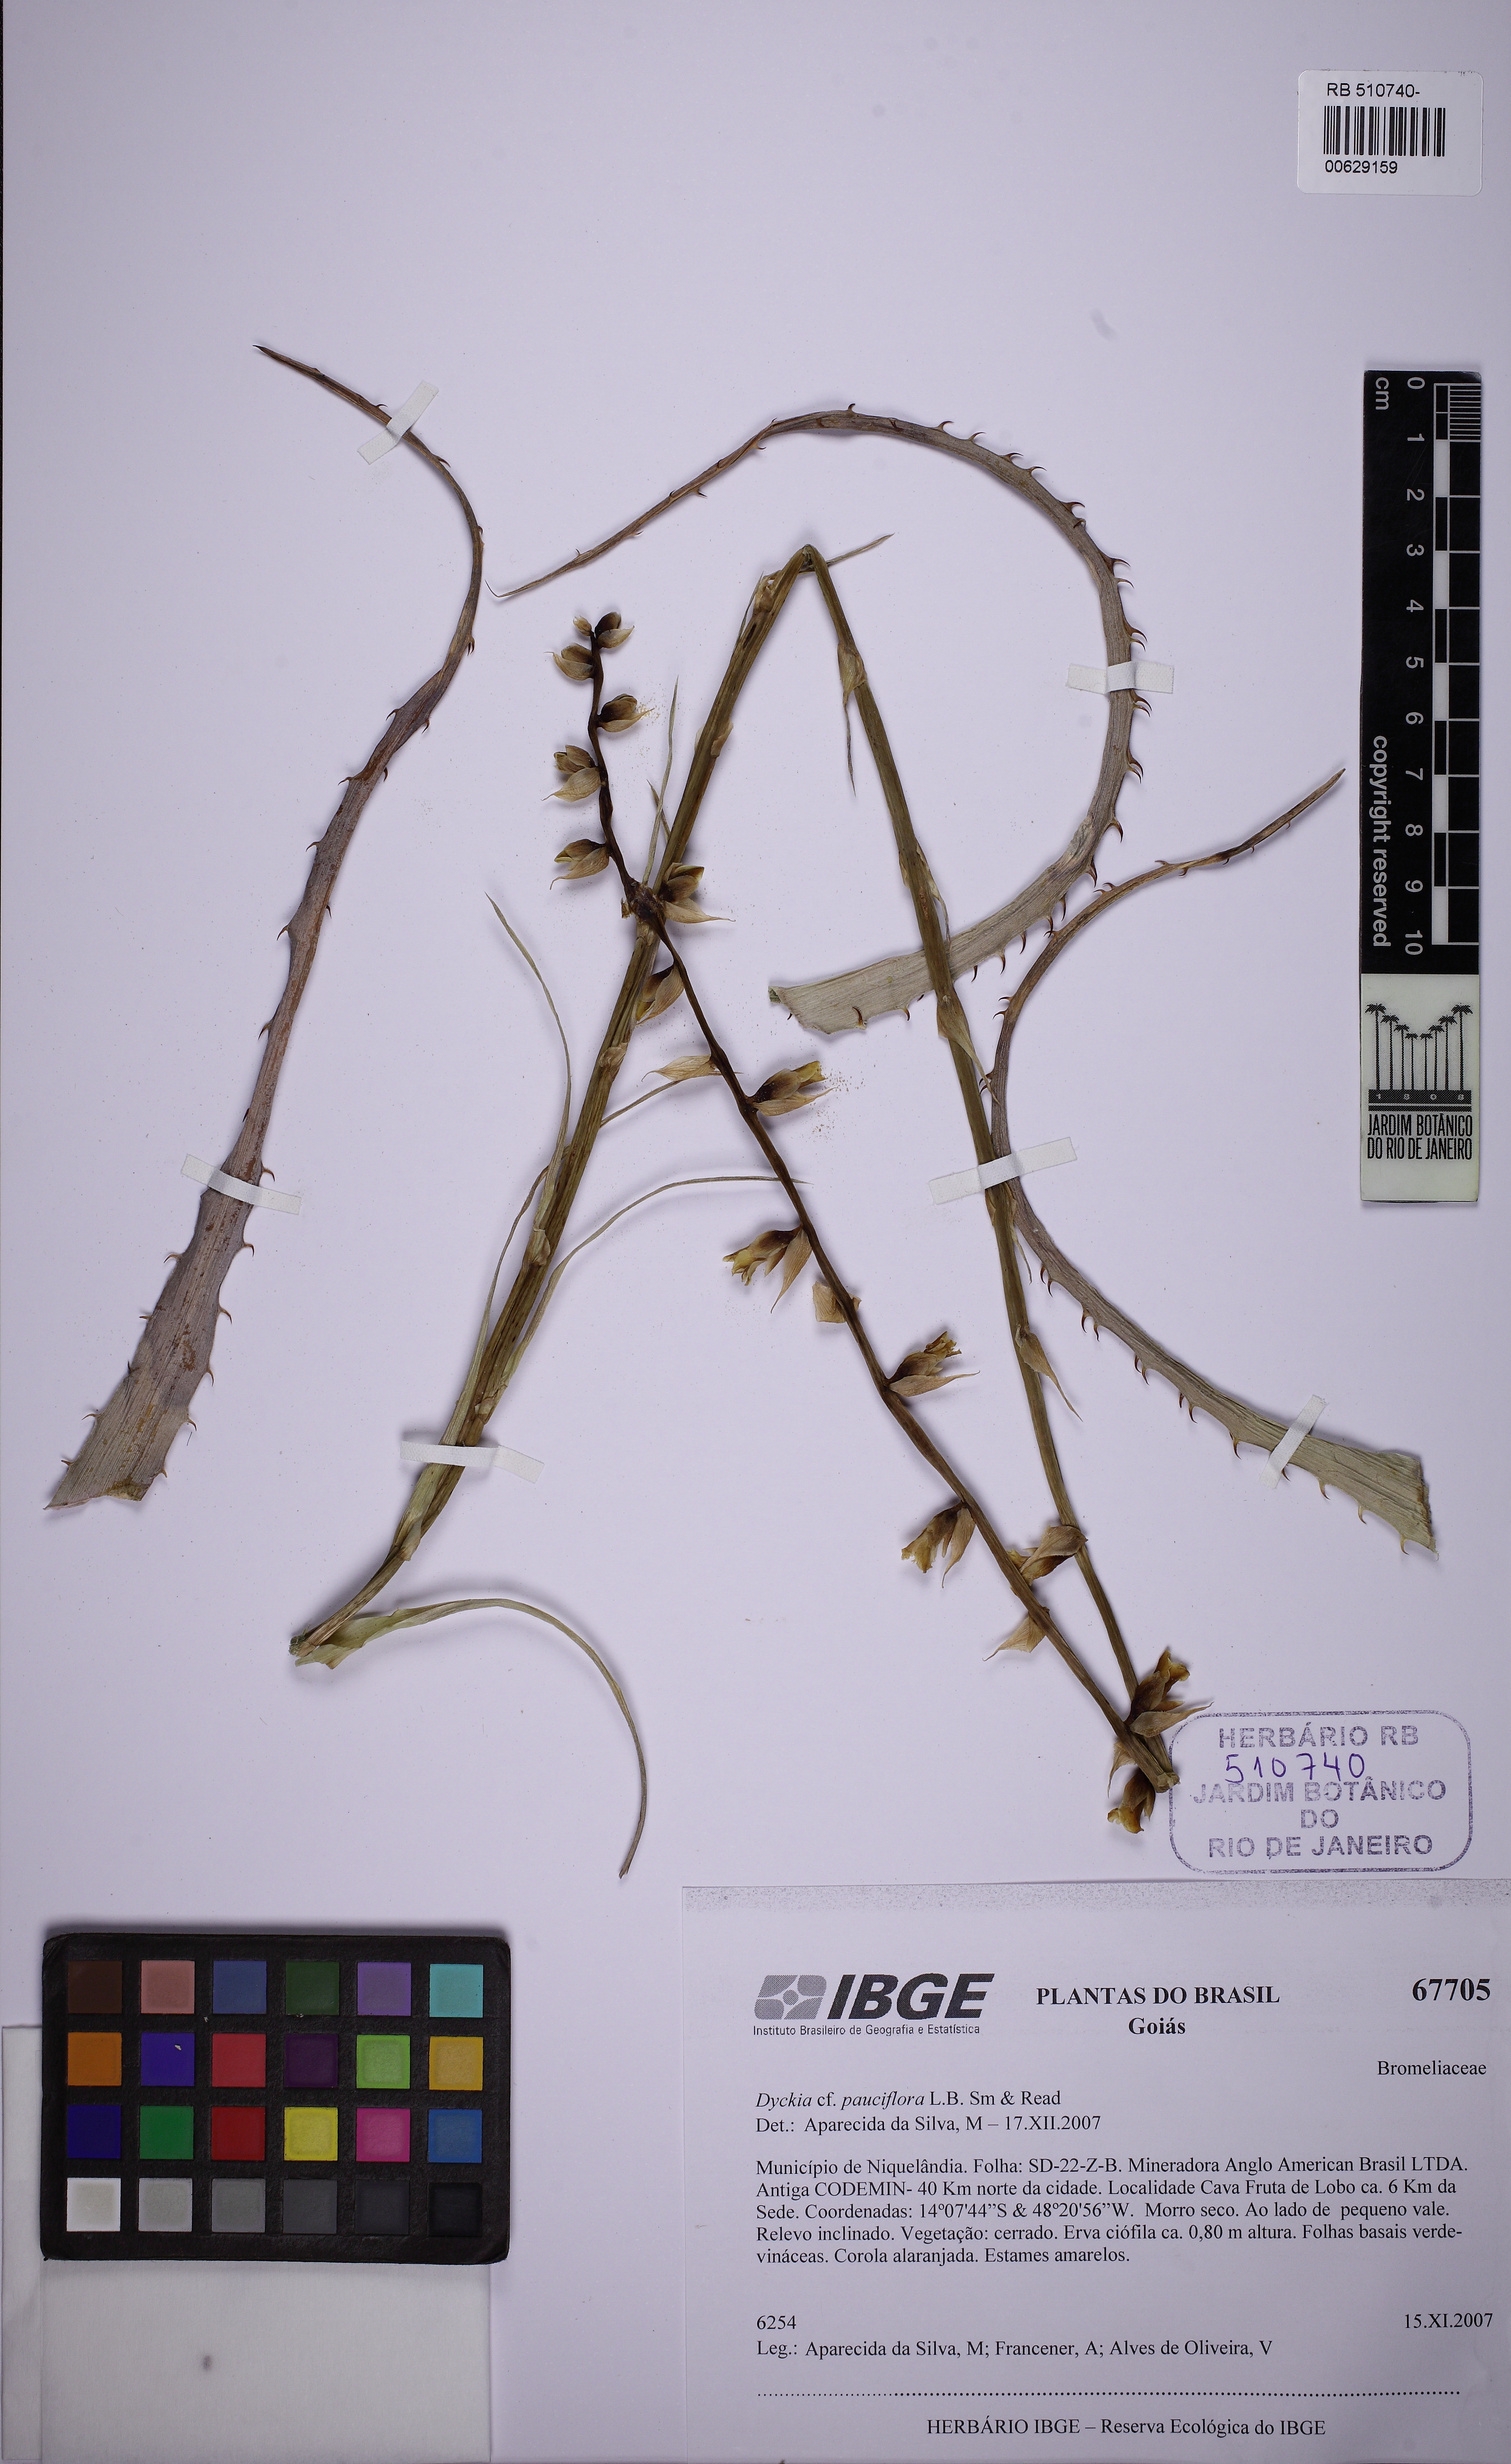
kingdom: Plantae
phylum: Tracheophyta
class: Liliopsida
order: Poales
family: Bromeliaceae
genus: Dyckia
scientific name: Dyckia pauciflora
